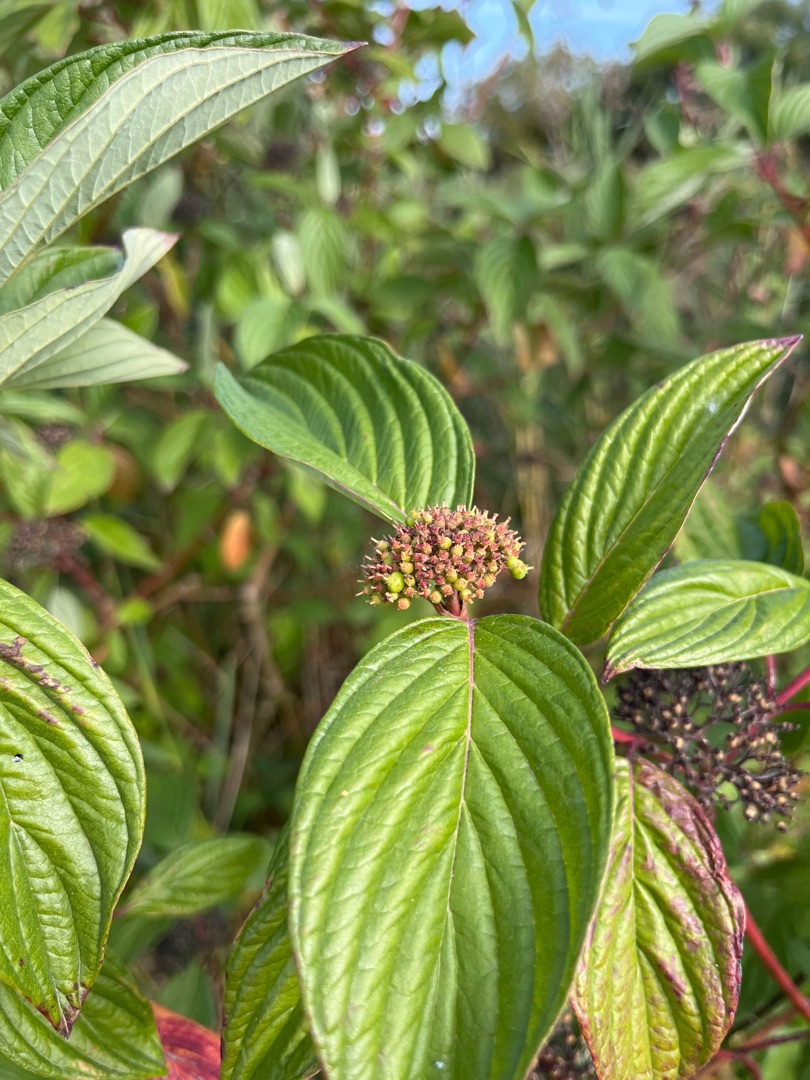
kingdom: Plantae
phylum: Tracheophyta
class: Magnoliopsida
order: Cornales
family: Cornaceae
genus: Cornus
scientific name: Cornus
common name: Kornelslægten
